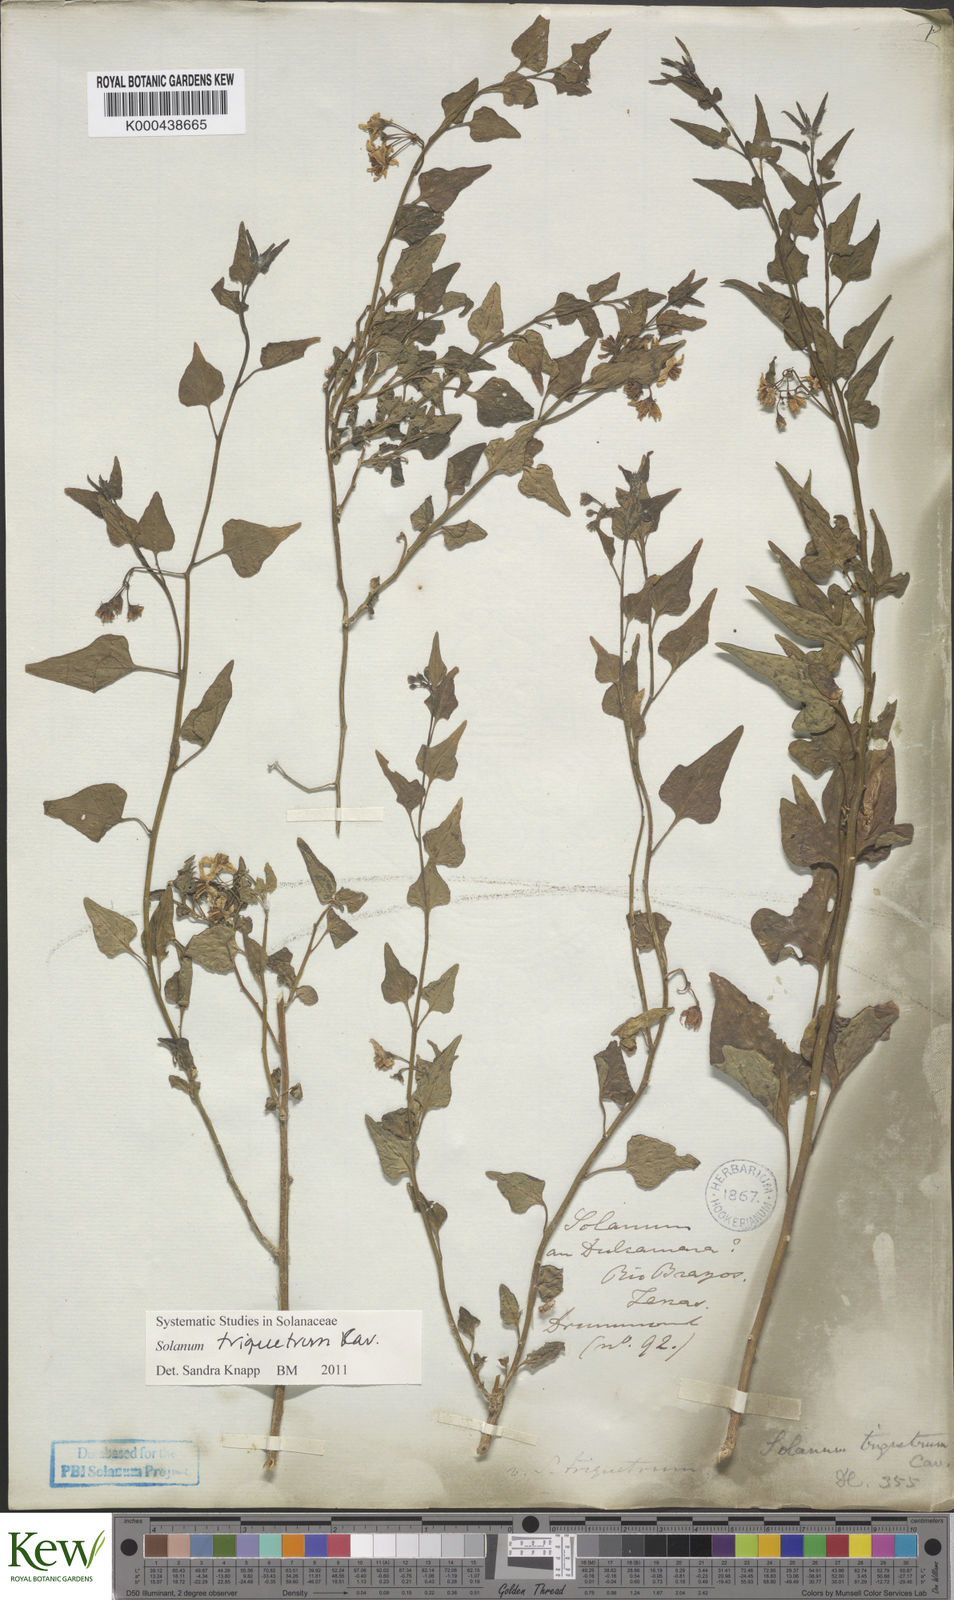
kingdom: Plantae
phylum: Tracheophyta
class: Magnoliopsida
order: Solanales
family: Solanaceae
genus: Solanum
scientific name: Solanum triquetrum
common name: Texas nightshade
